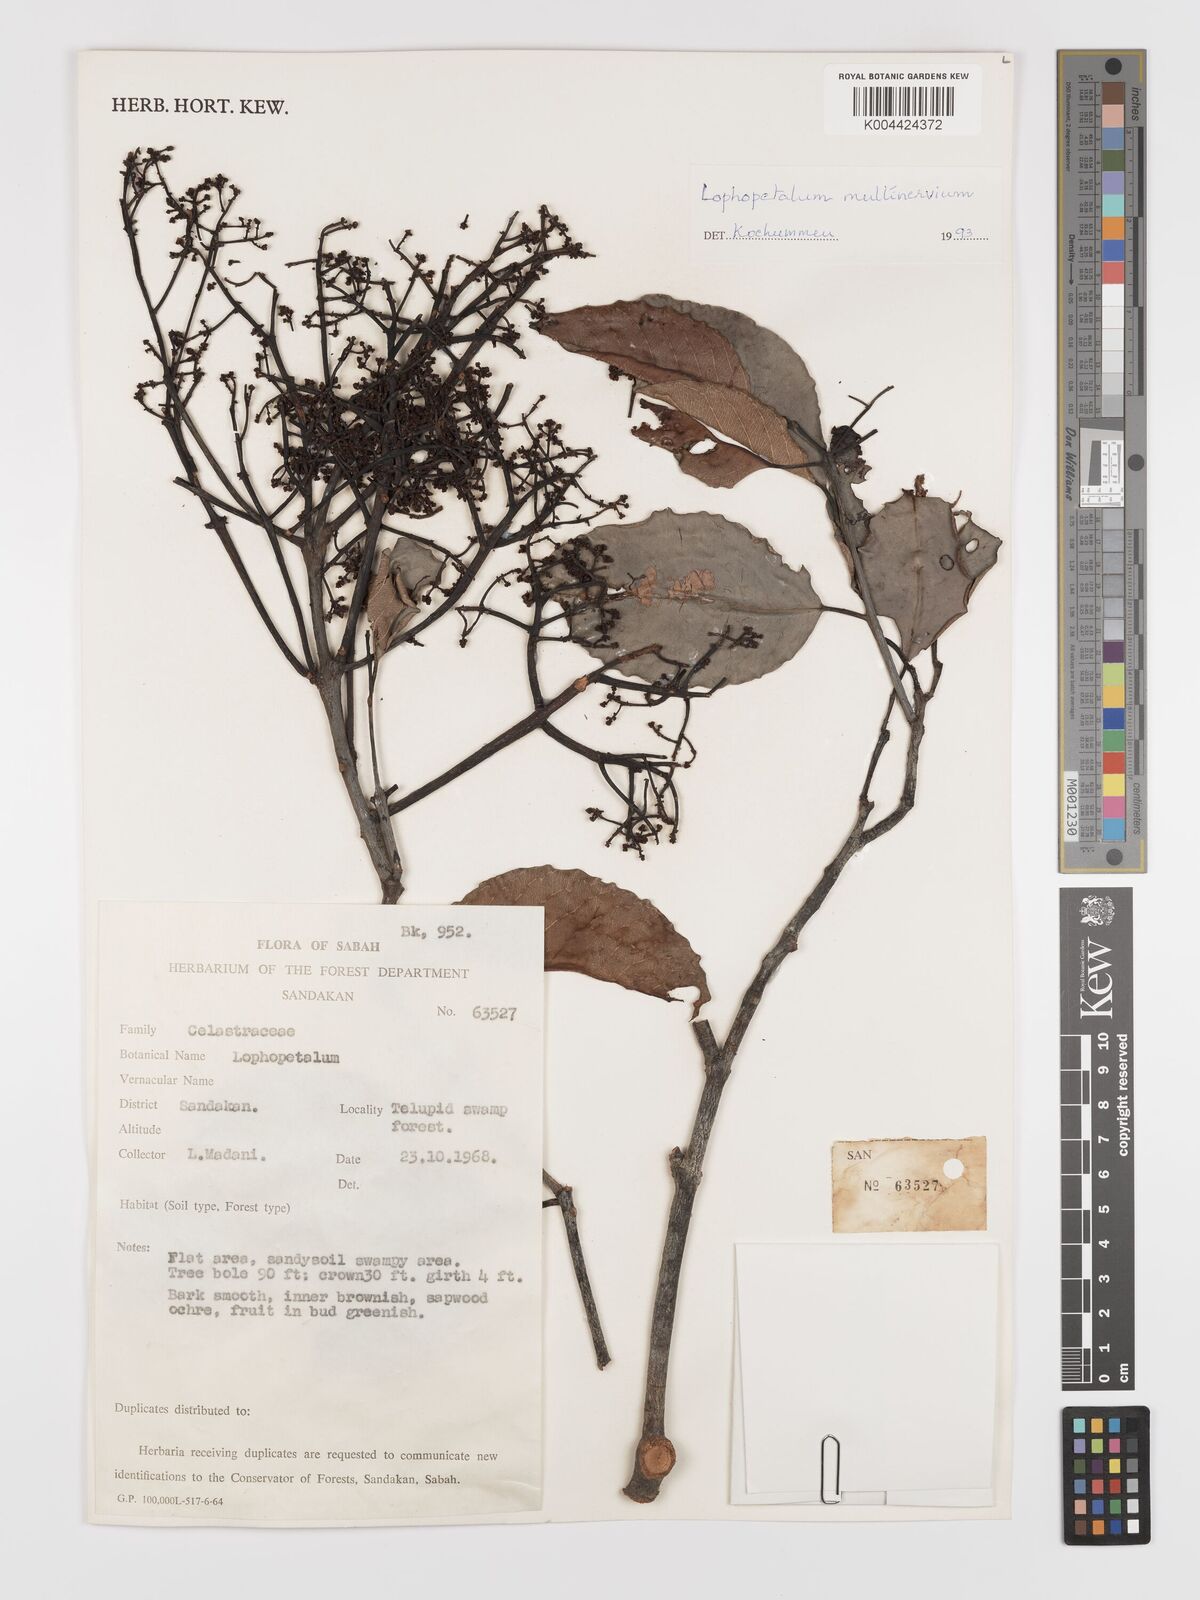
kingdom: Plantae
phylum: Tracheophyta
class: Magnoliopsida
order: Celastrales
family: Celastraceae
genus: Lophopetalum
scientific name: Lophopetalum multinervium
